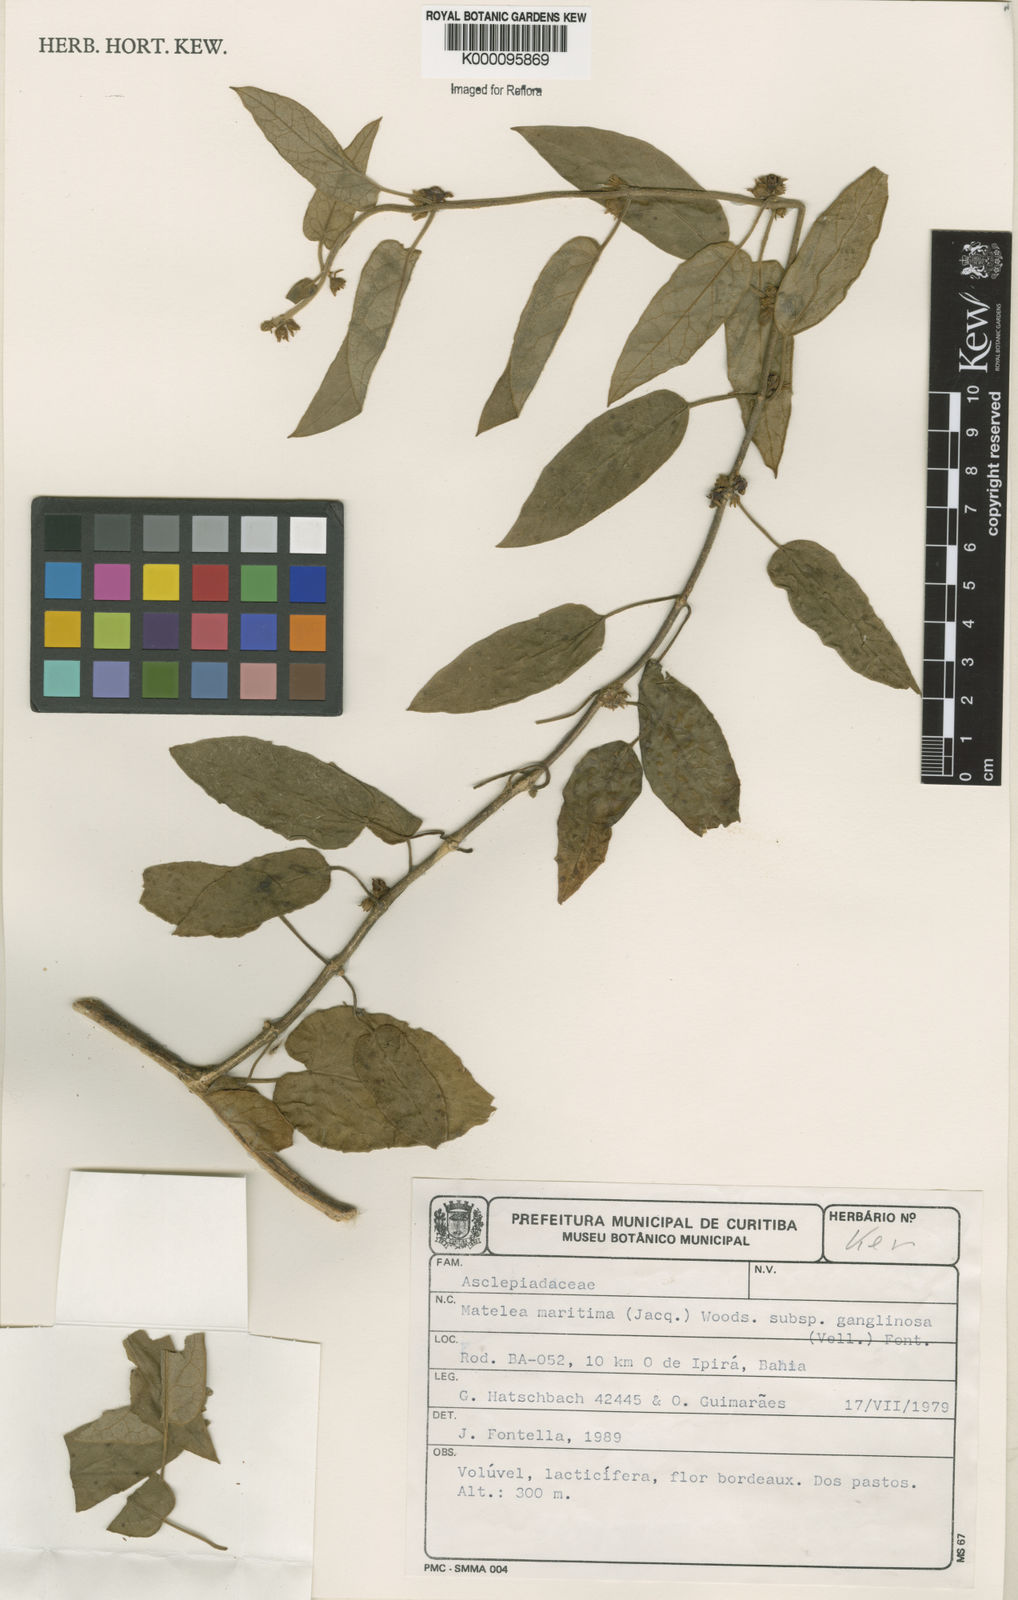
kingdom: Plantae
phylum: Tracheophyta
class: Magnoliopsida
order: Gentianales
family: Apocynaceae
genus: Ibatia
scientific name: Ibatia ganglinosa
